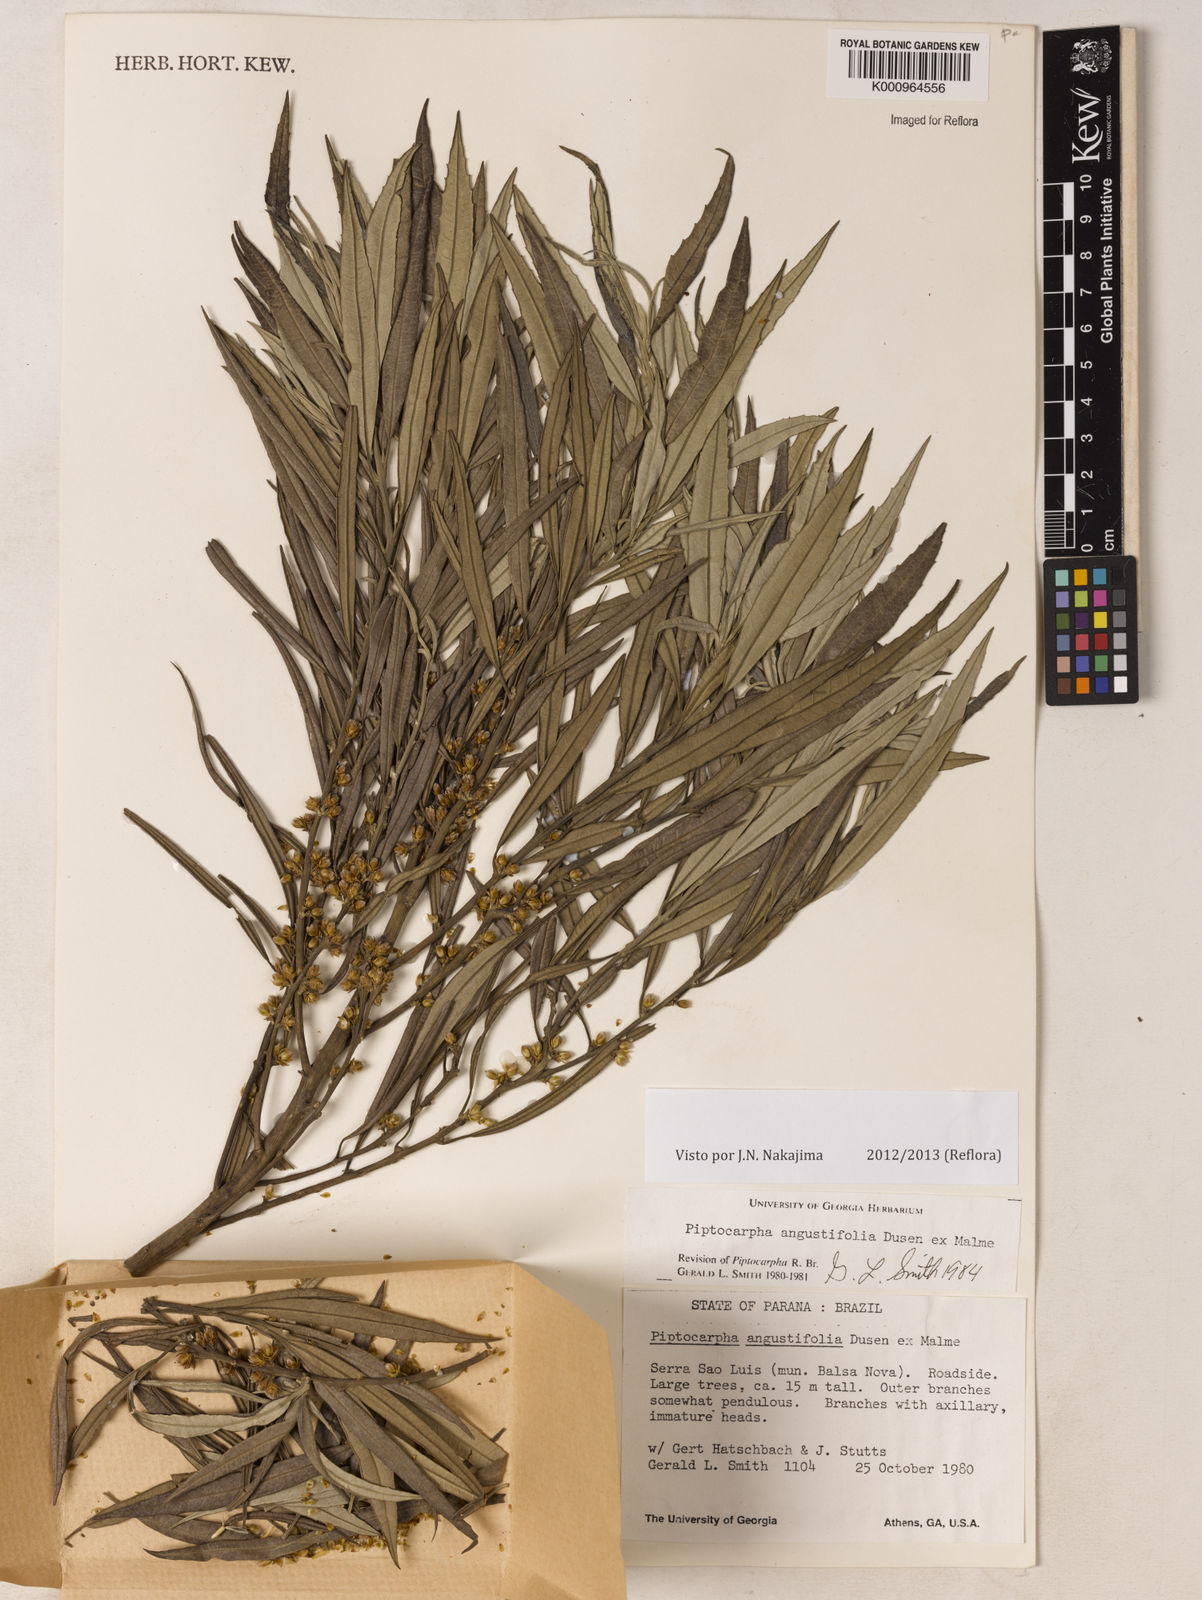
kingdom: Plantae
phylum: Tracheophyta
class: Magnoliopsida
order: Asterales
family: Asteraceae
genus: Piptocarpha
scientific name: Piptocarpha
